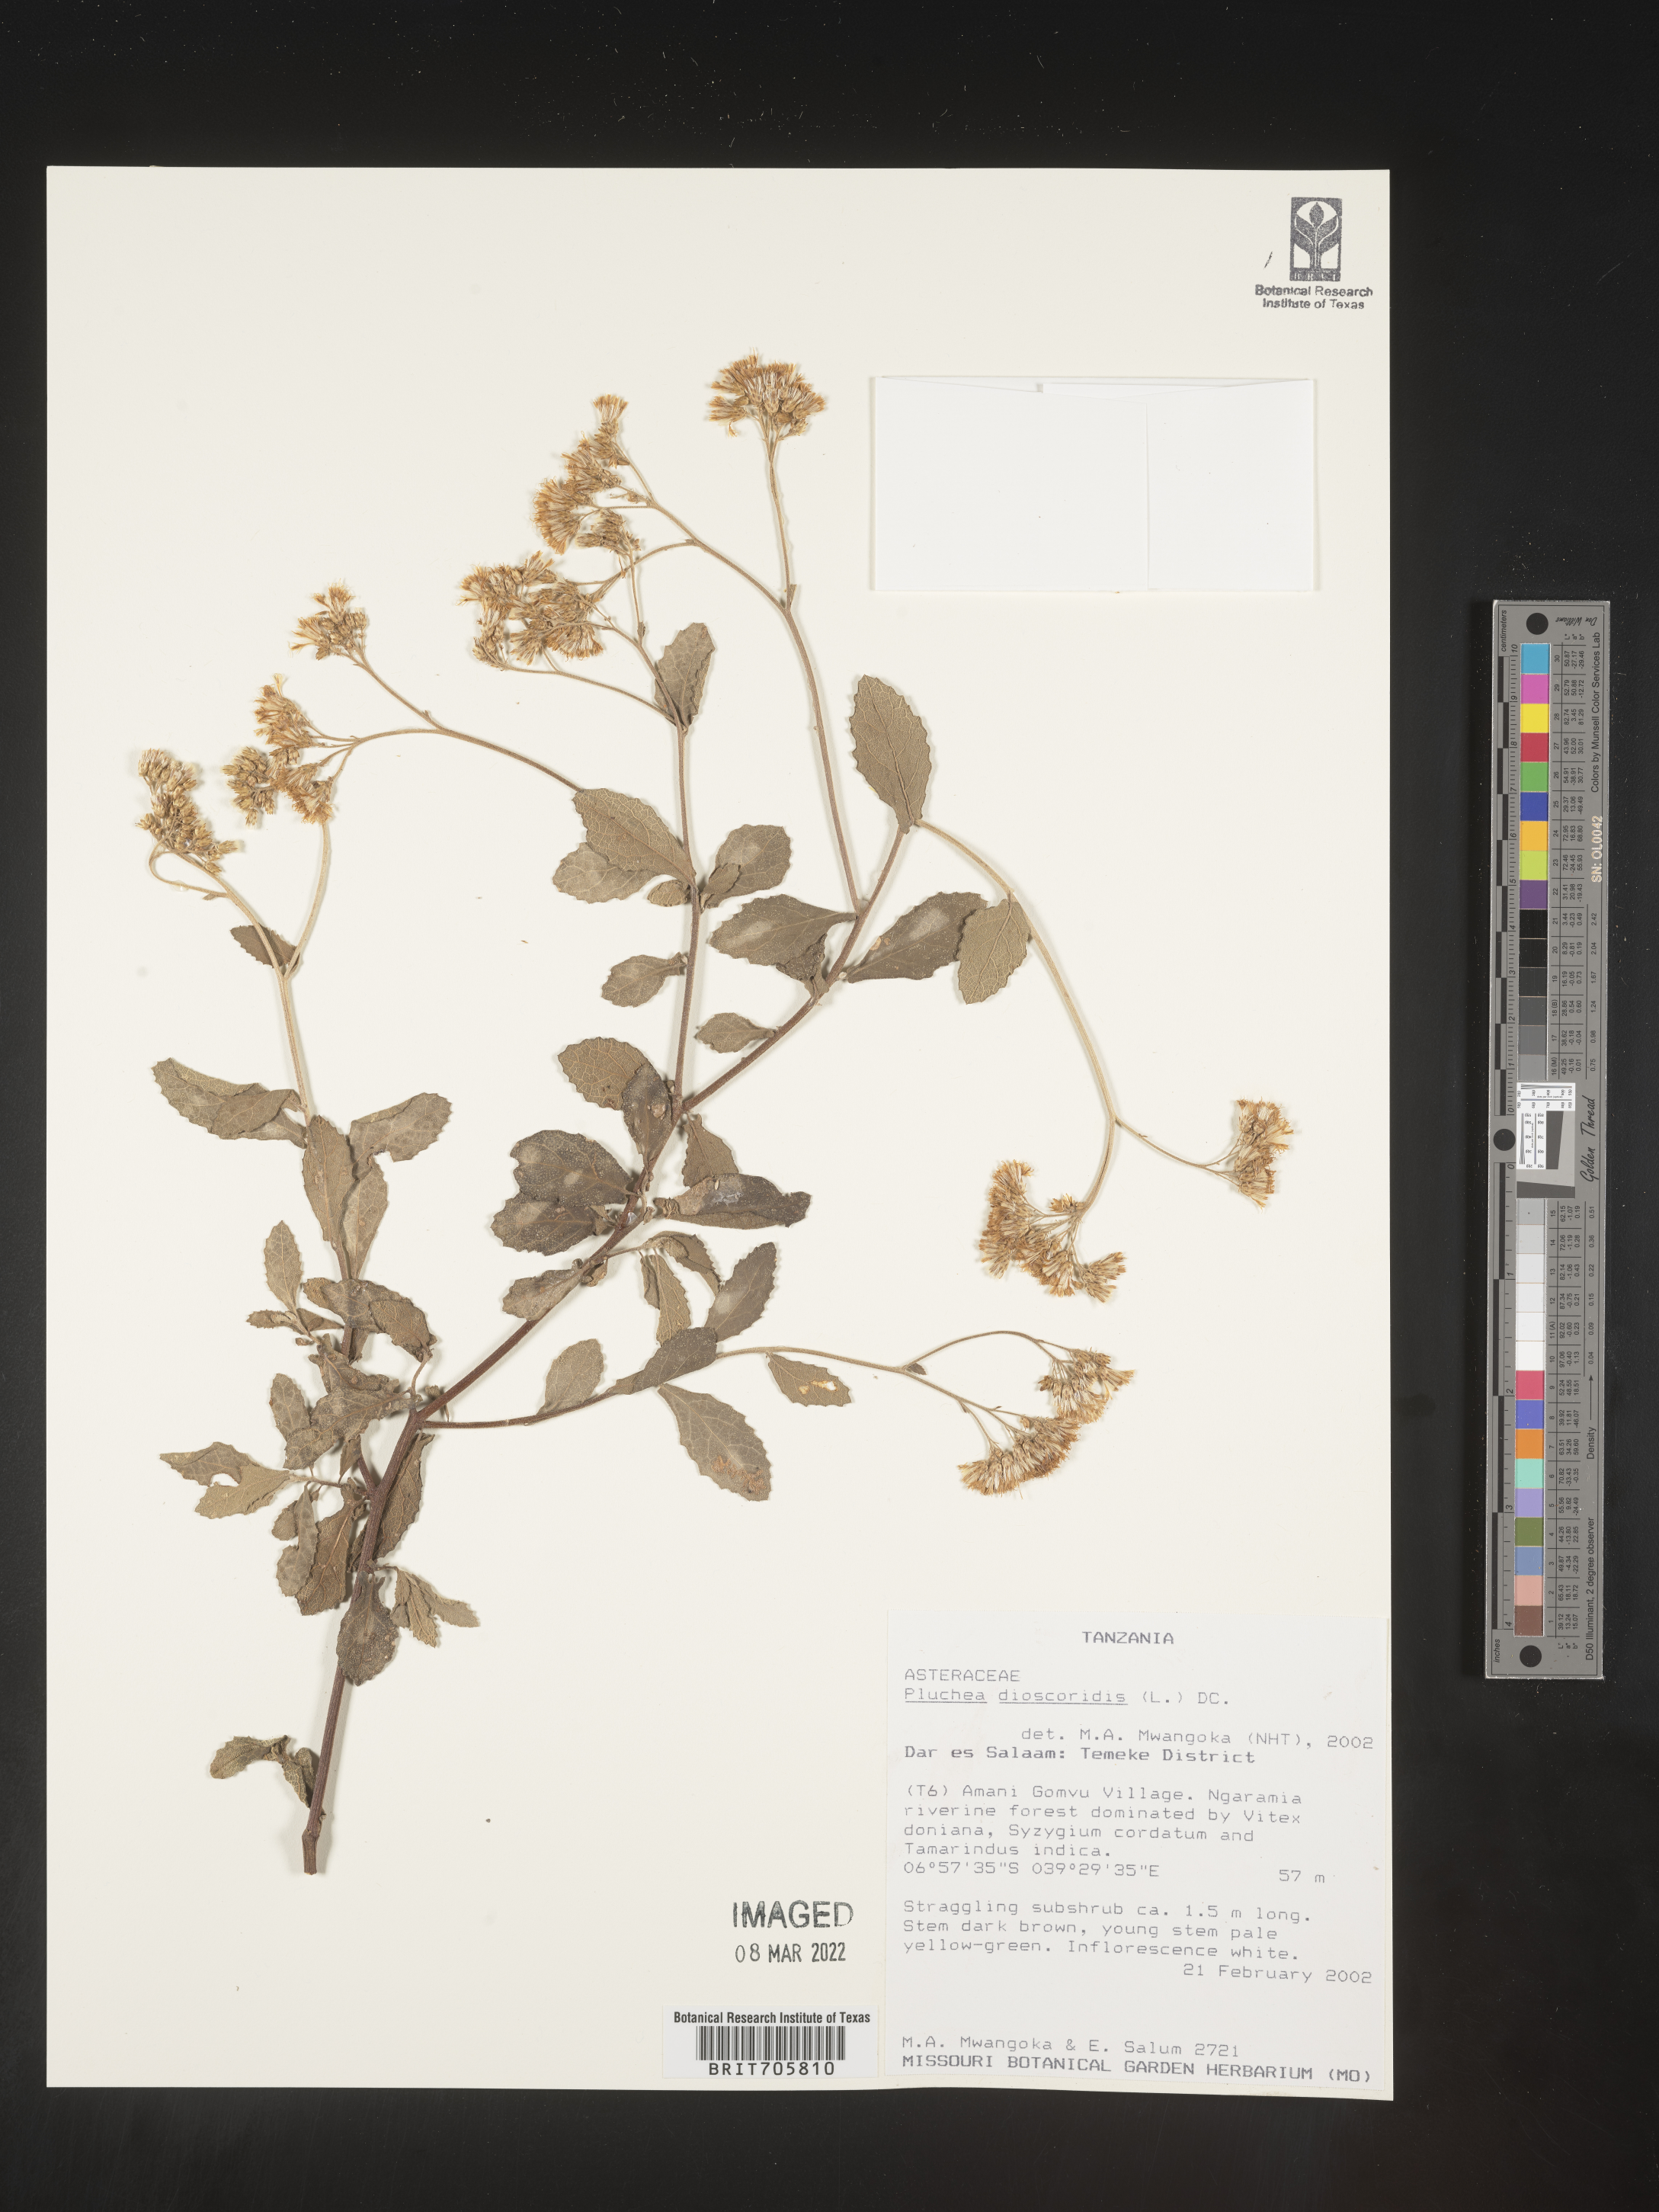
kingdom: Plantae
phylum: Tracheophyta
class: Magnoliopsida
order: Asterales
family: Asteraceae
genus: Pluchea
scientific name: Pluchea
